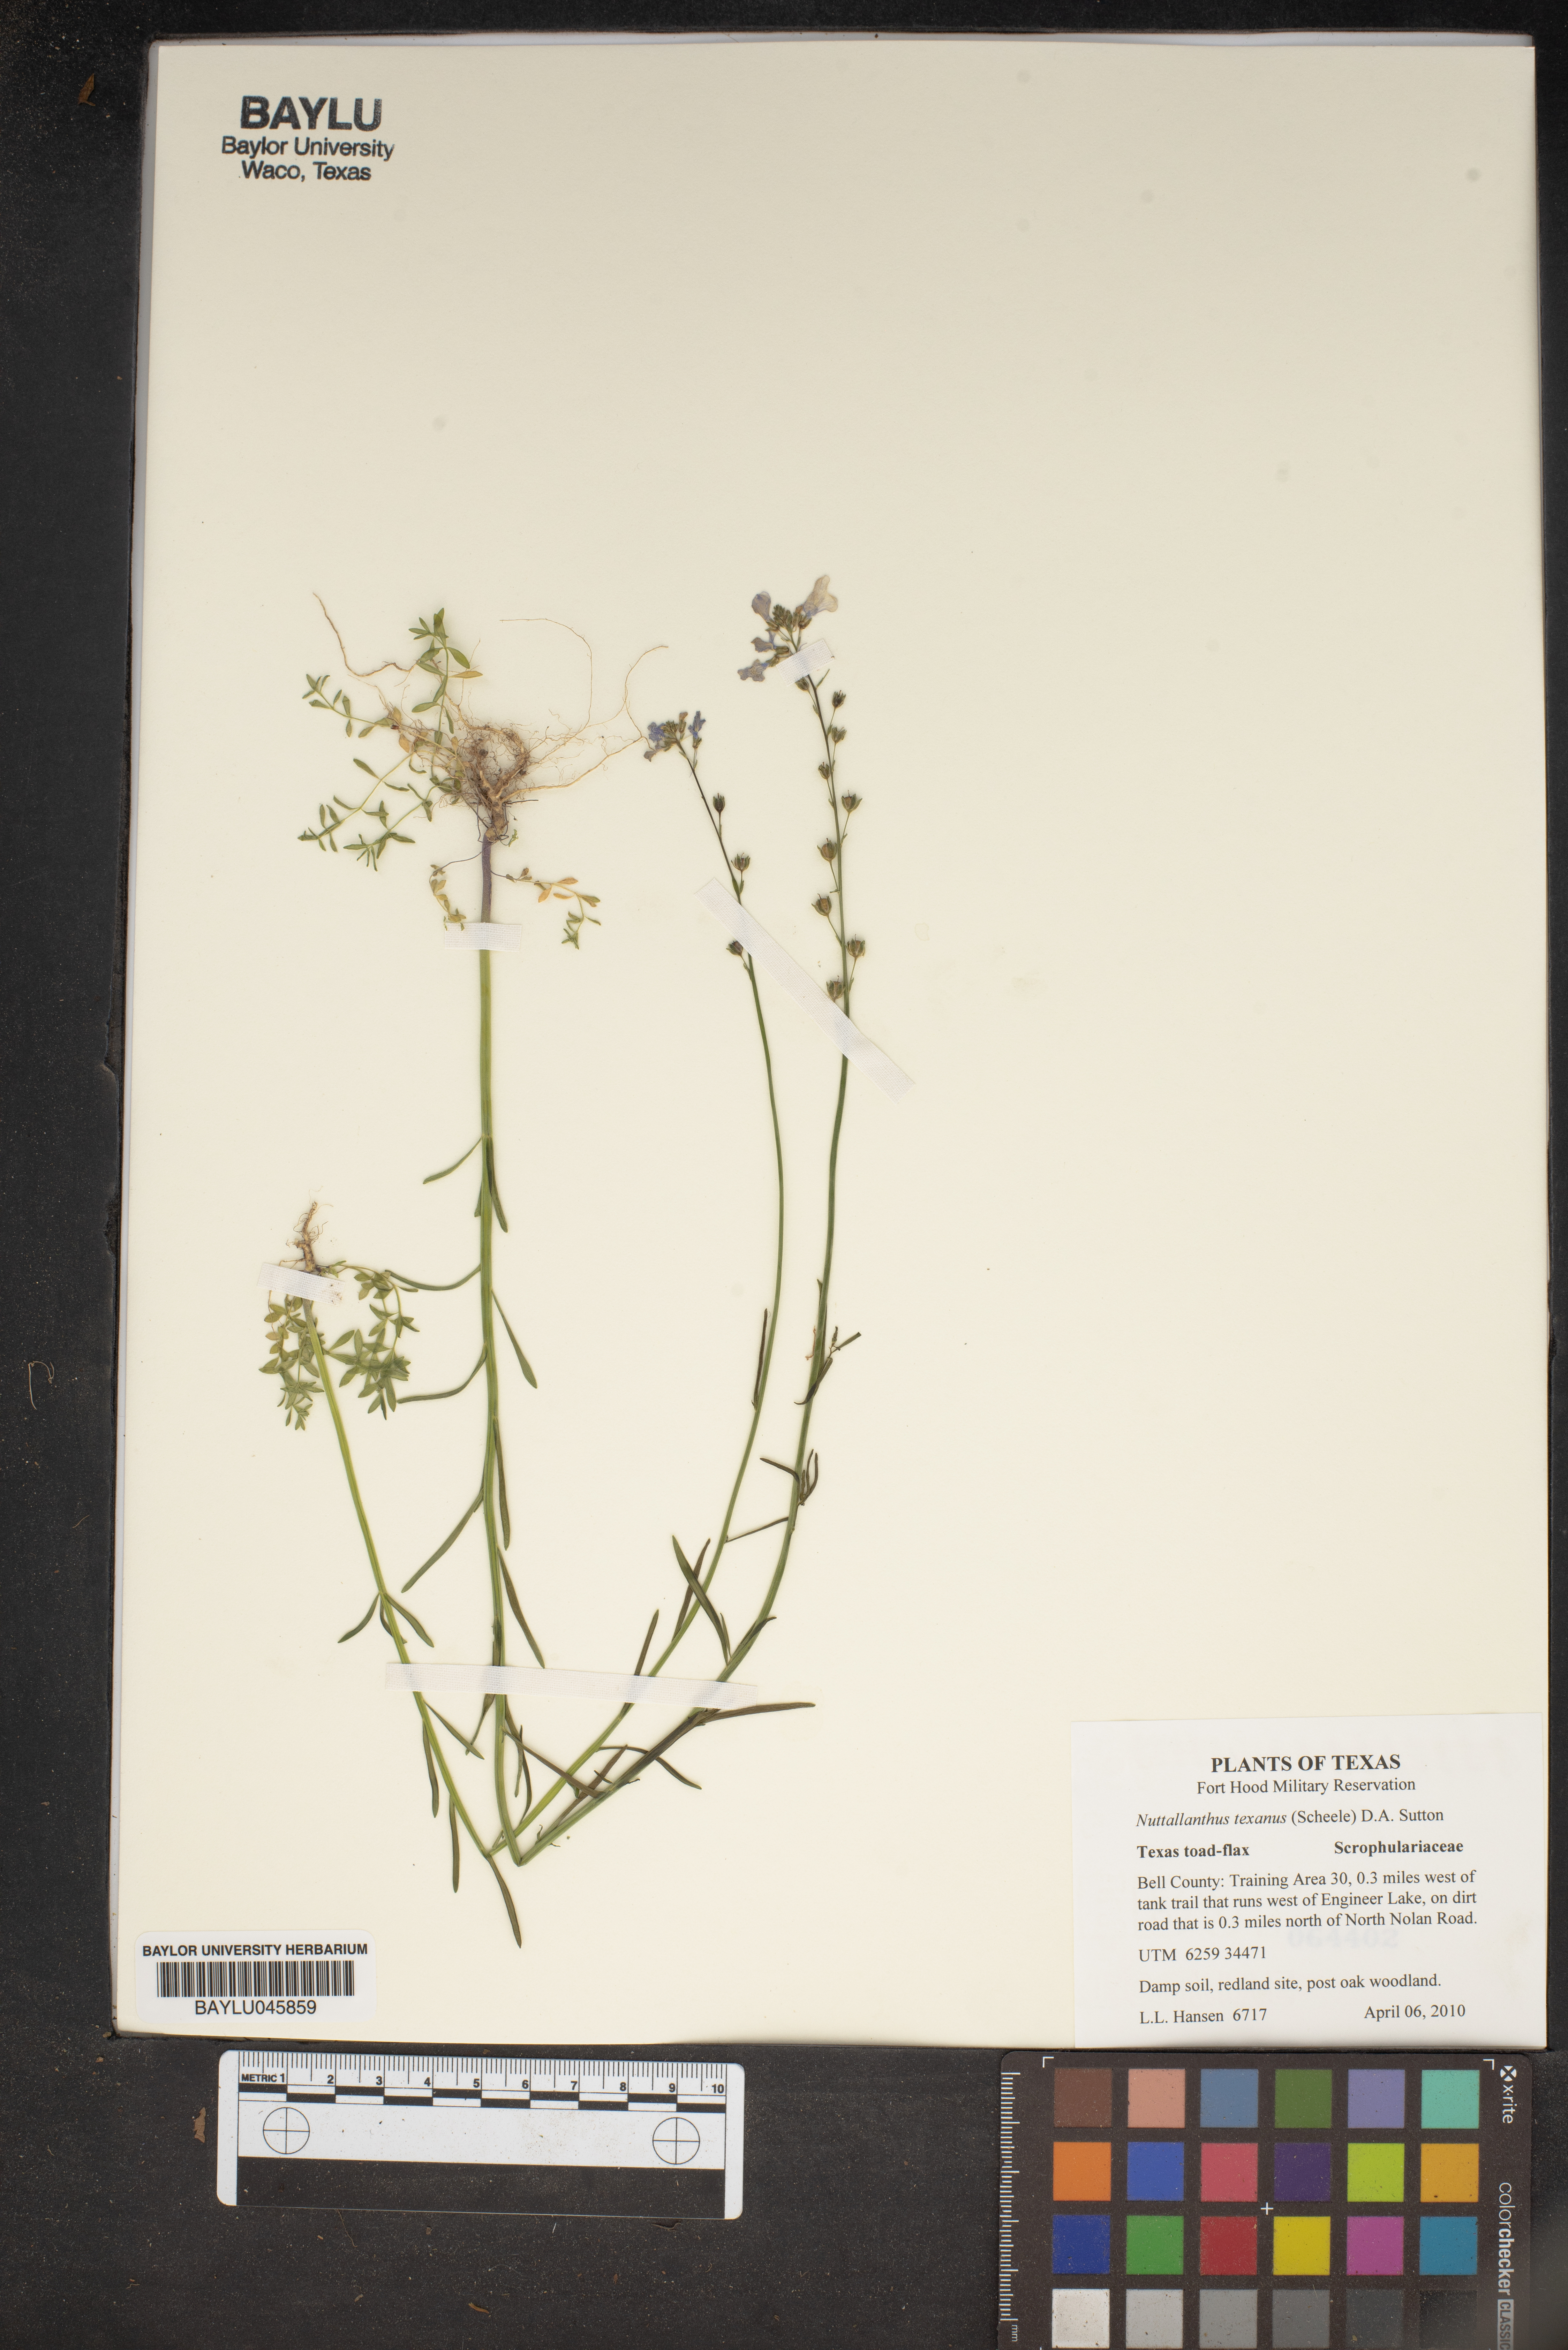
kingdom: Plantae
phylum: Tracheophyta
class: Magnoliopsida
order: Lamiales
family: Plantaginaceae
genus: Nuttallanthus
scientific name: Nuttallanthus texanus
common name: Texas toadflax
